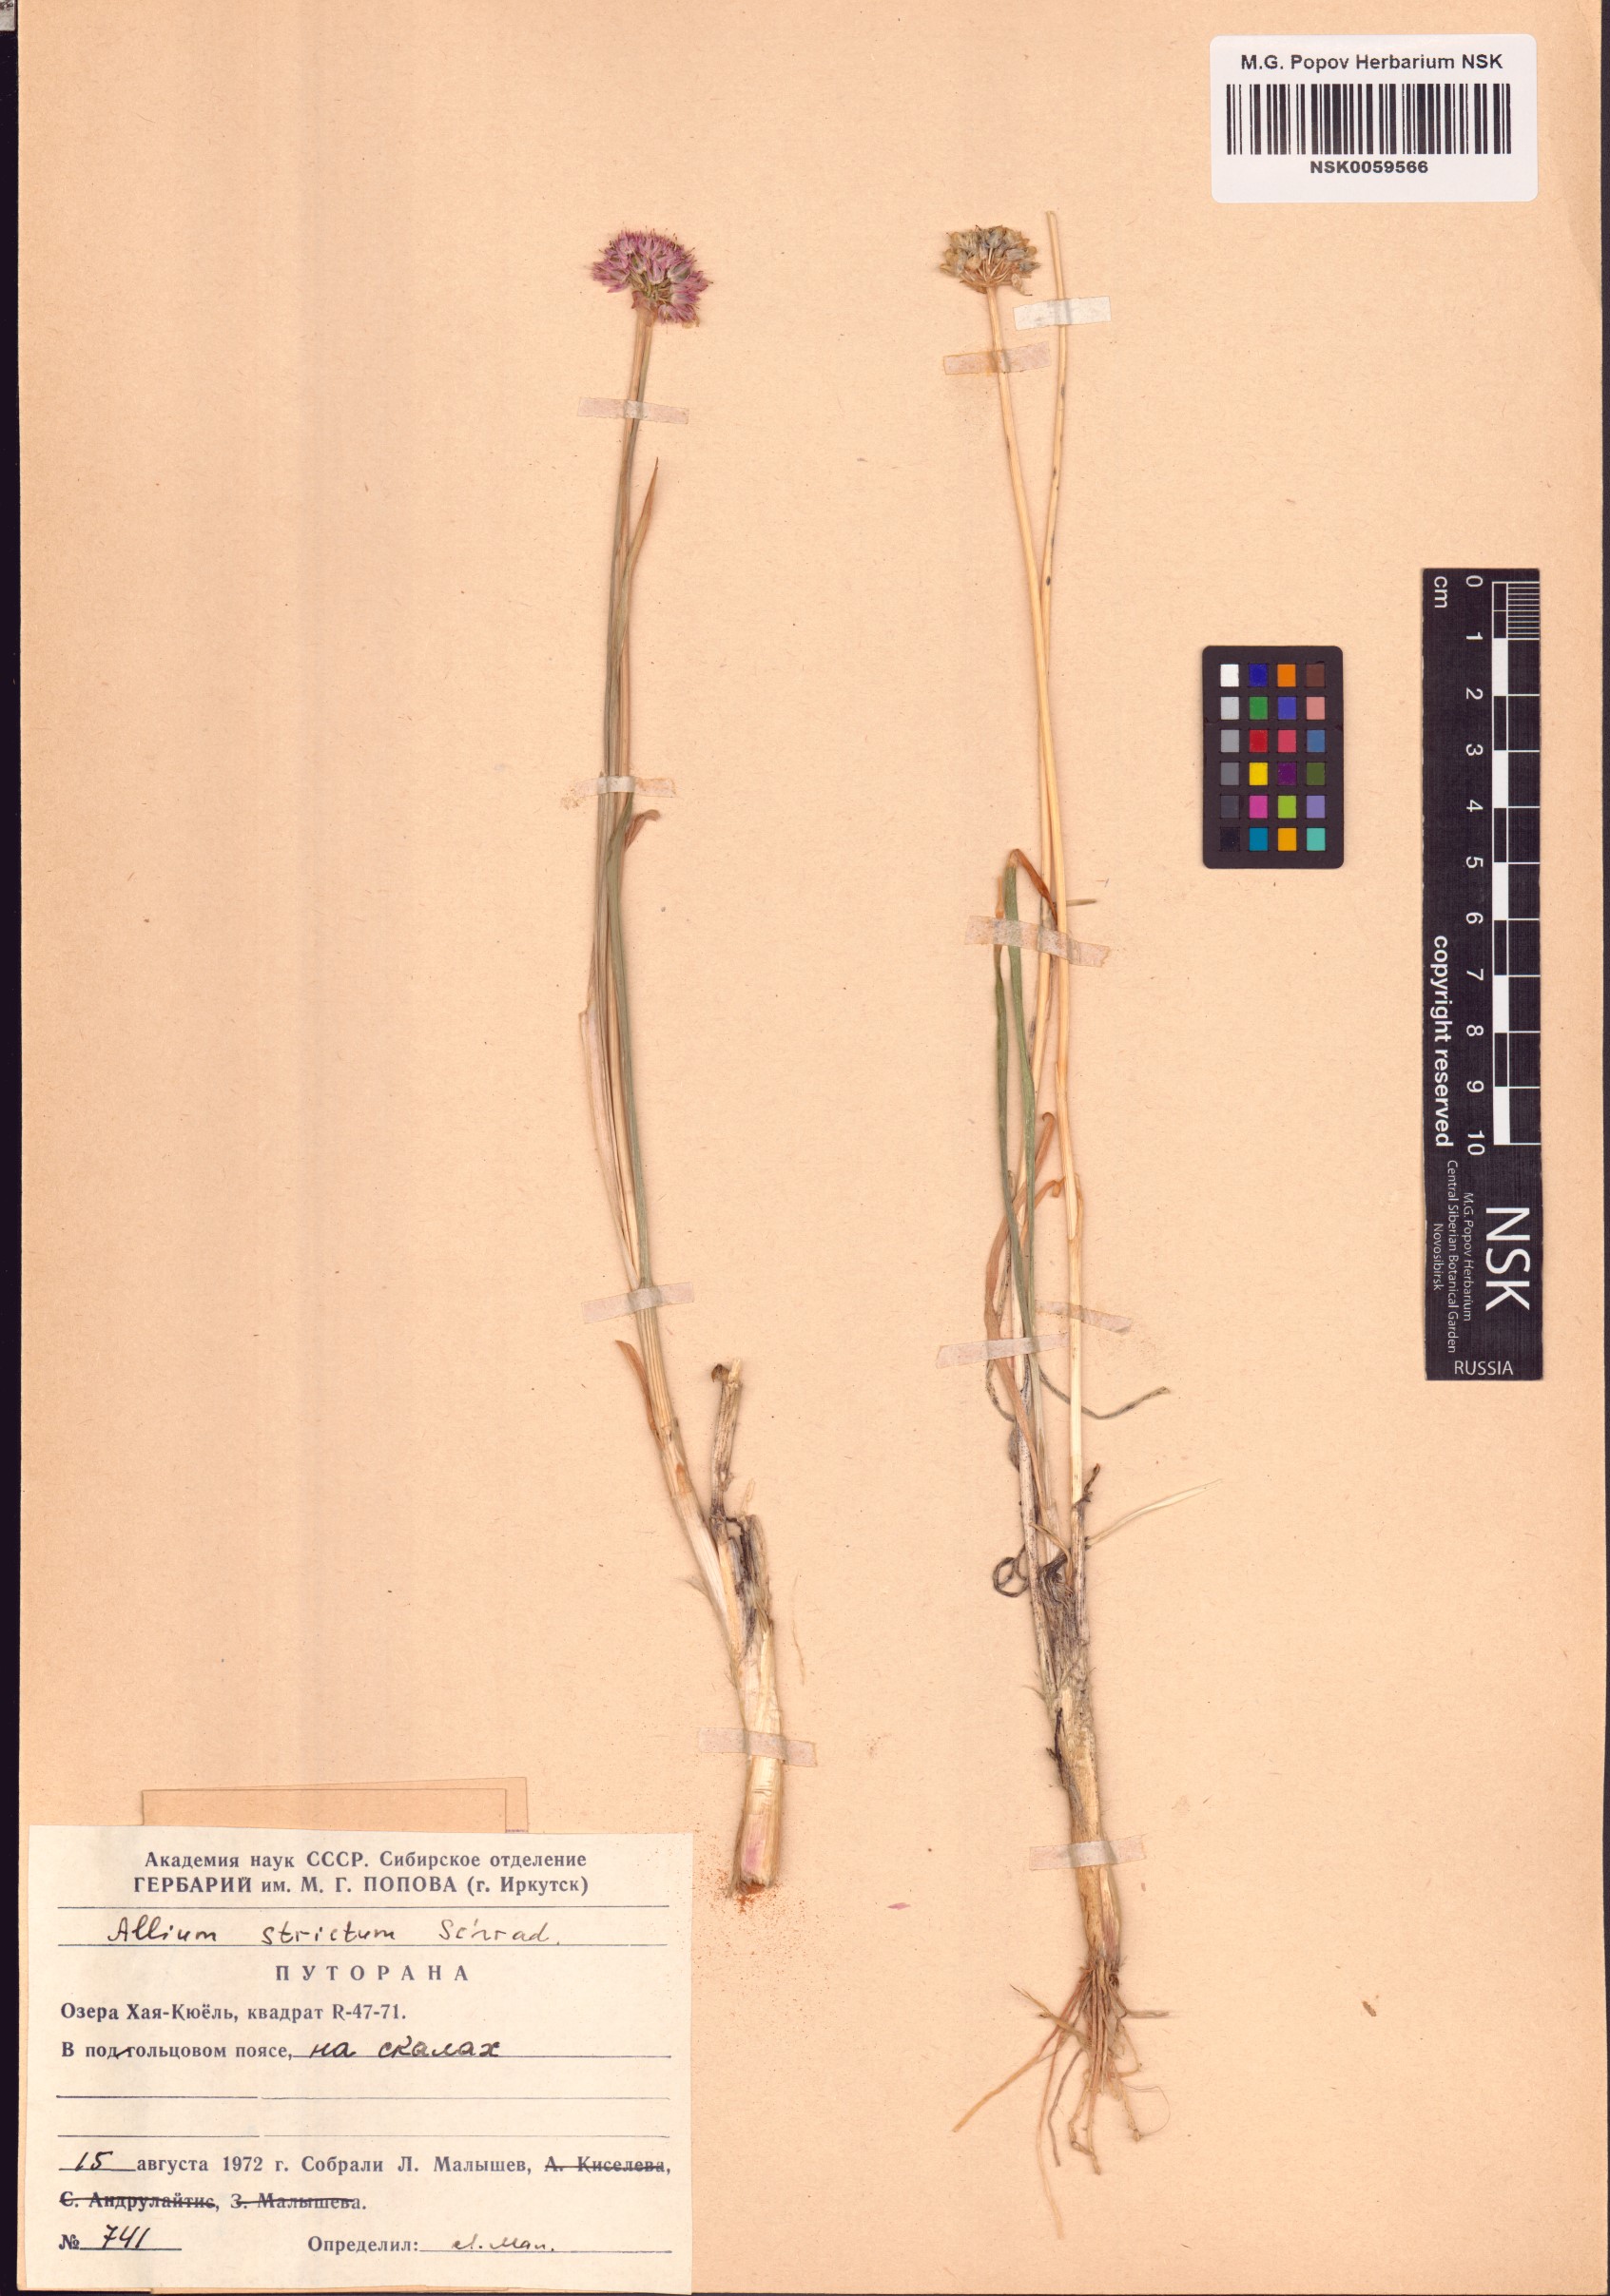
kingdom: Plantae
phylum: Tracheophyta
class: Liliopsida
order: Asparagales
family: Amaryllidaceae
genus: Allium
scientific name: Allium strictum
